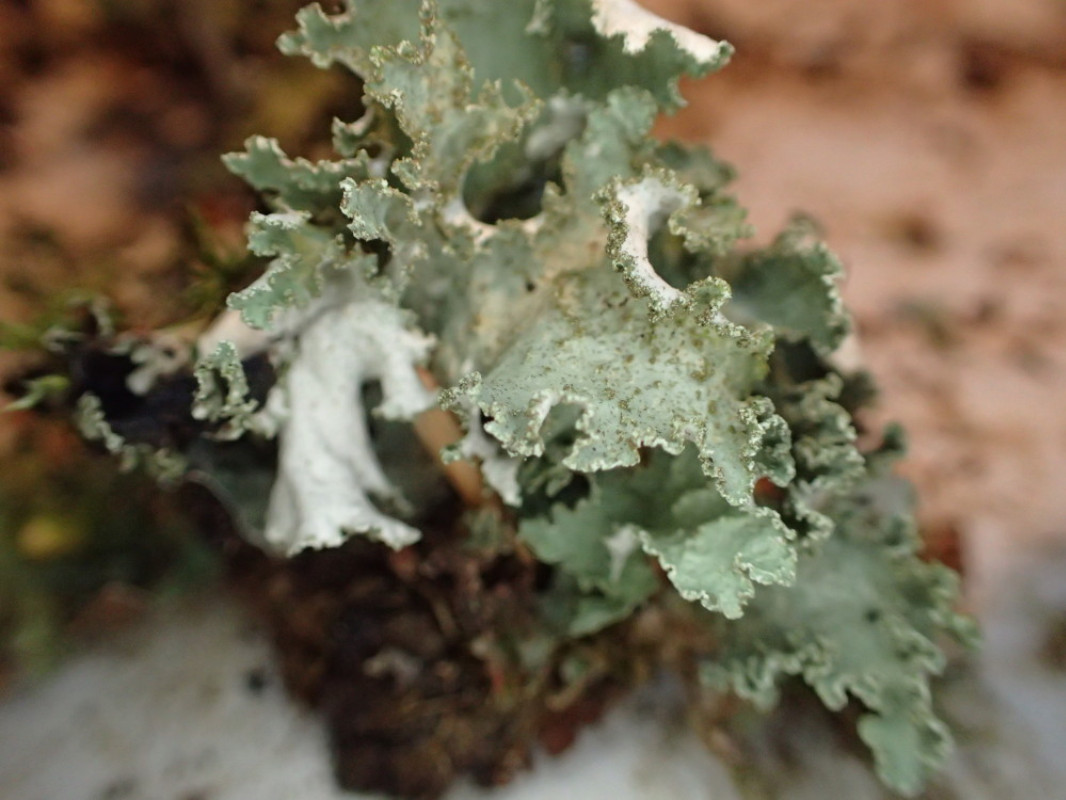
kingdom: Fungi
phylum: Ascomycota
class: Lecanoromycetes
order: Lecanorales
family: Parmeliaceae
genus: Platismatia
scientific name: Platismatia glauca
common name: blågrå papirlav
